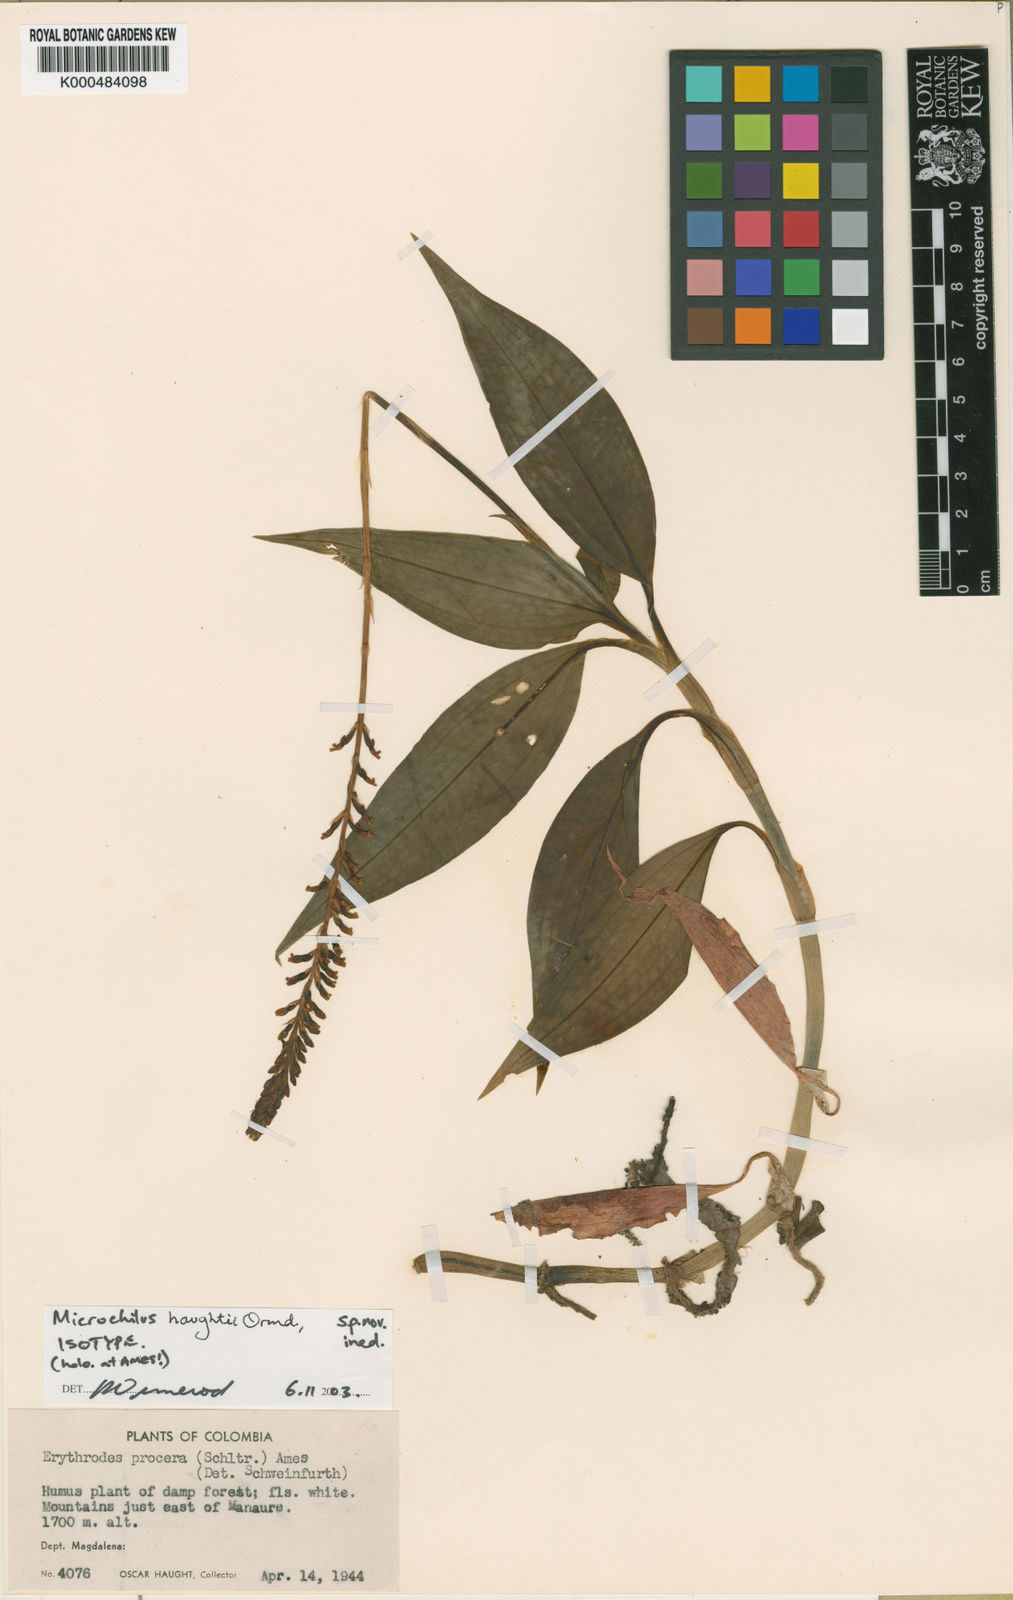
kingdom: Plantae
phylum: Tracheophyta
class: Liliopsida
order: Asparagales
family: Orchidaceae
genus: Microchilus
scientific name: Microchilus procerus
